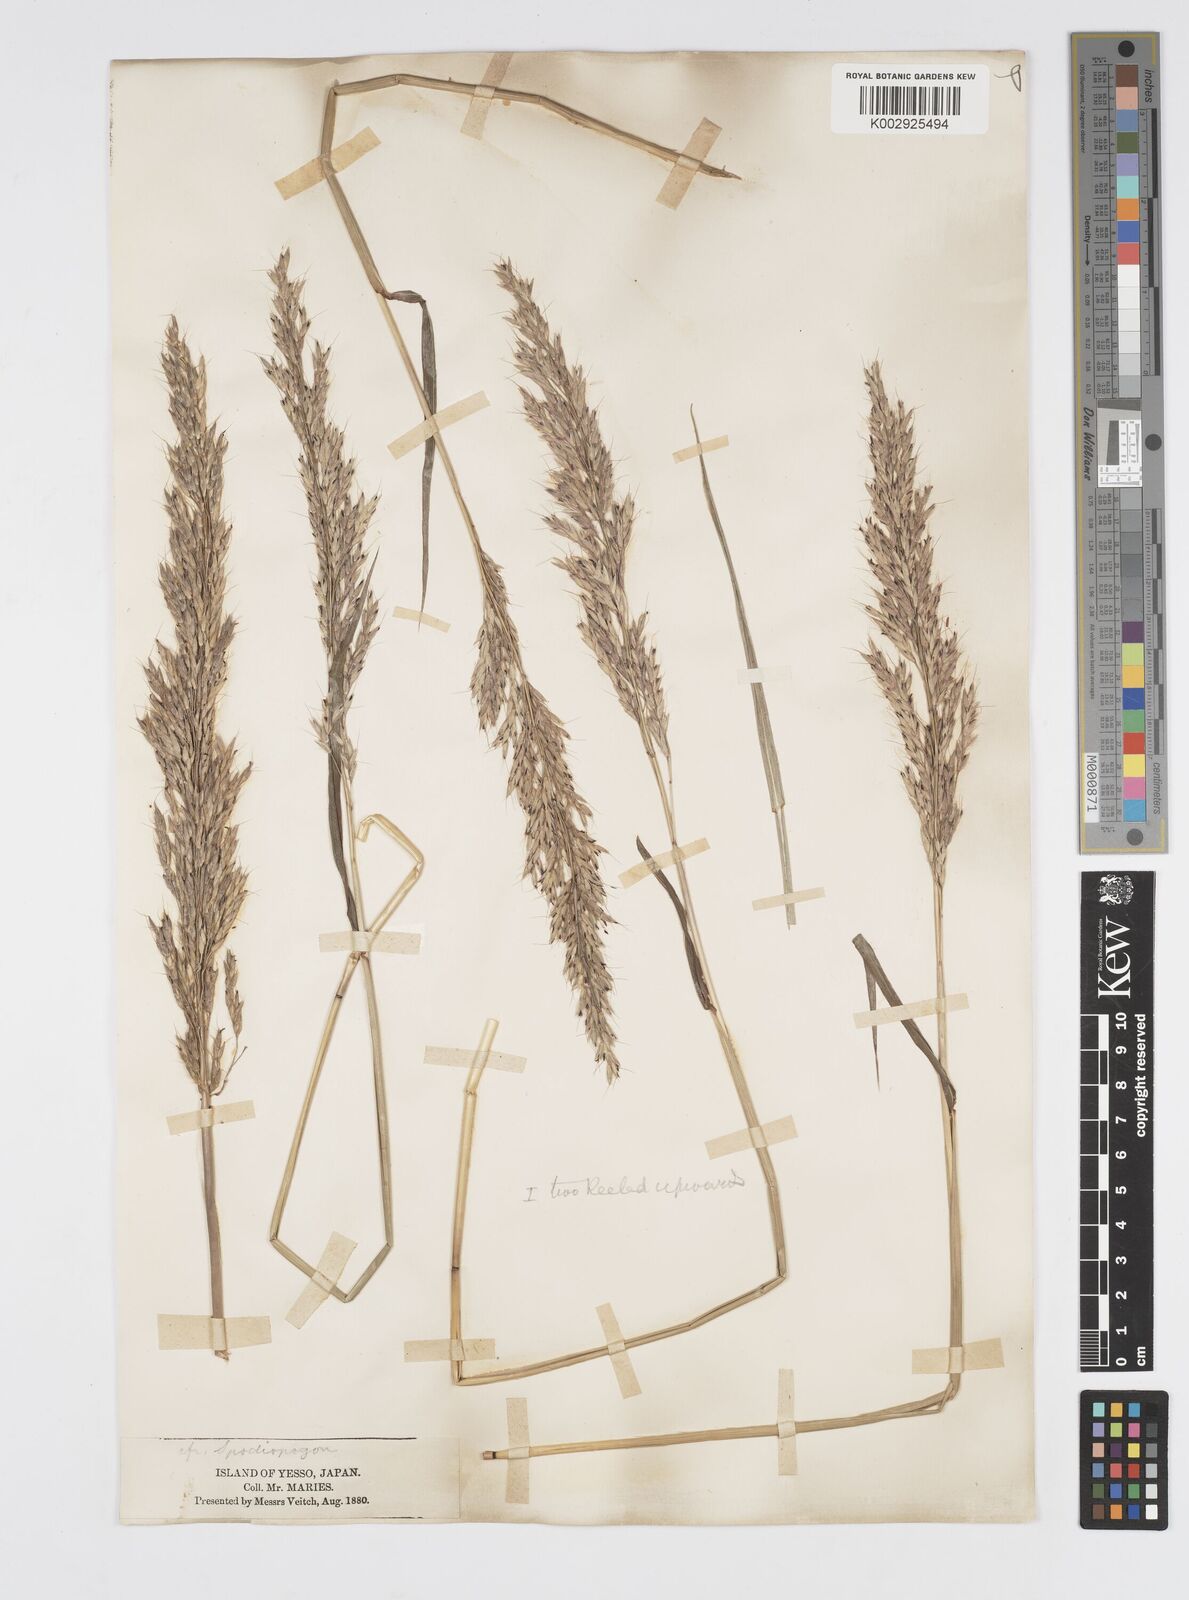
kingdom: Plantae
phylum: Tracheophyta
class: Liliopsida
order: Poales
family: Poaceae
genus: Spodiopogon
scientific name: Spodiopogon sibiricus
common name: Siberian graybeard
